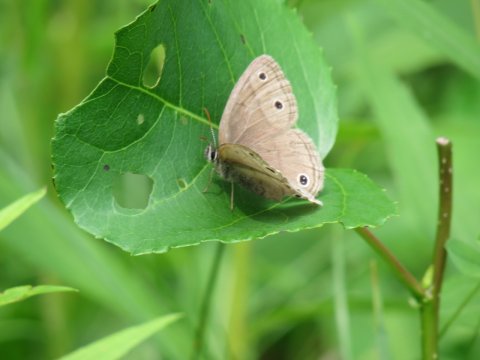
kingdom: Animalia
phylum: Arthropoda
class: Insecta
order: Lepidoptera
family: Nymphalidae
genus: Euptychia
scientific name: Euptychia cymela
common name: Little Wood Satyr
